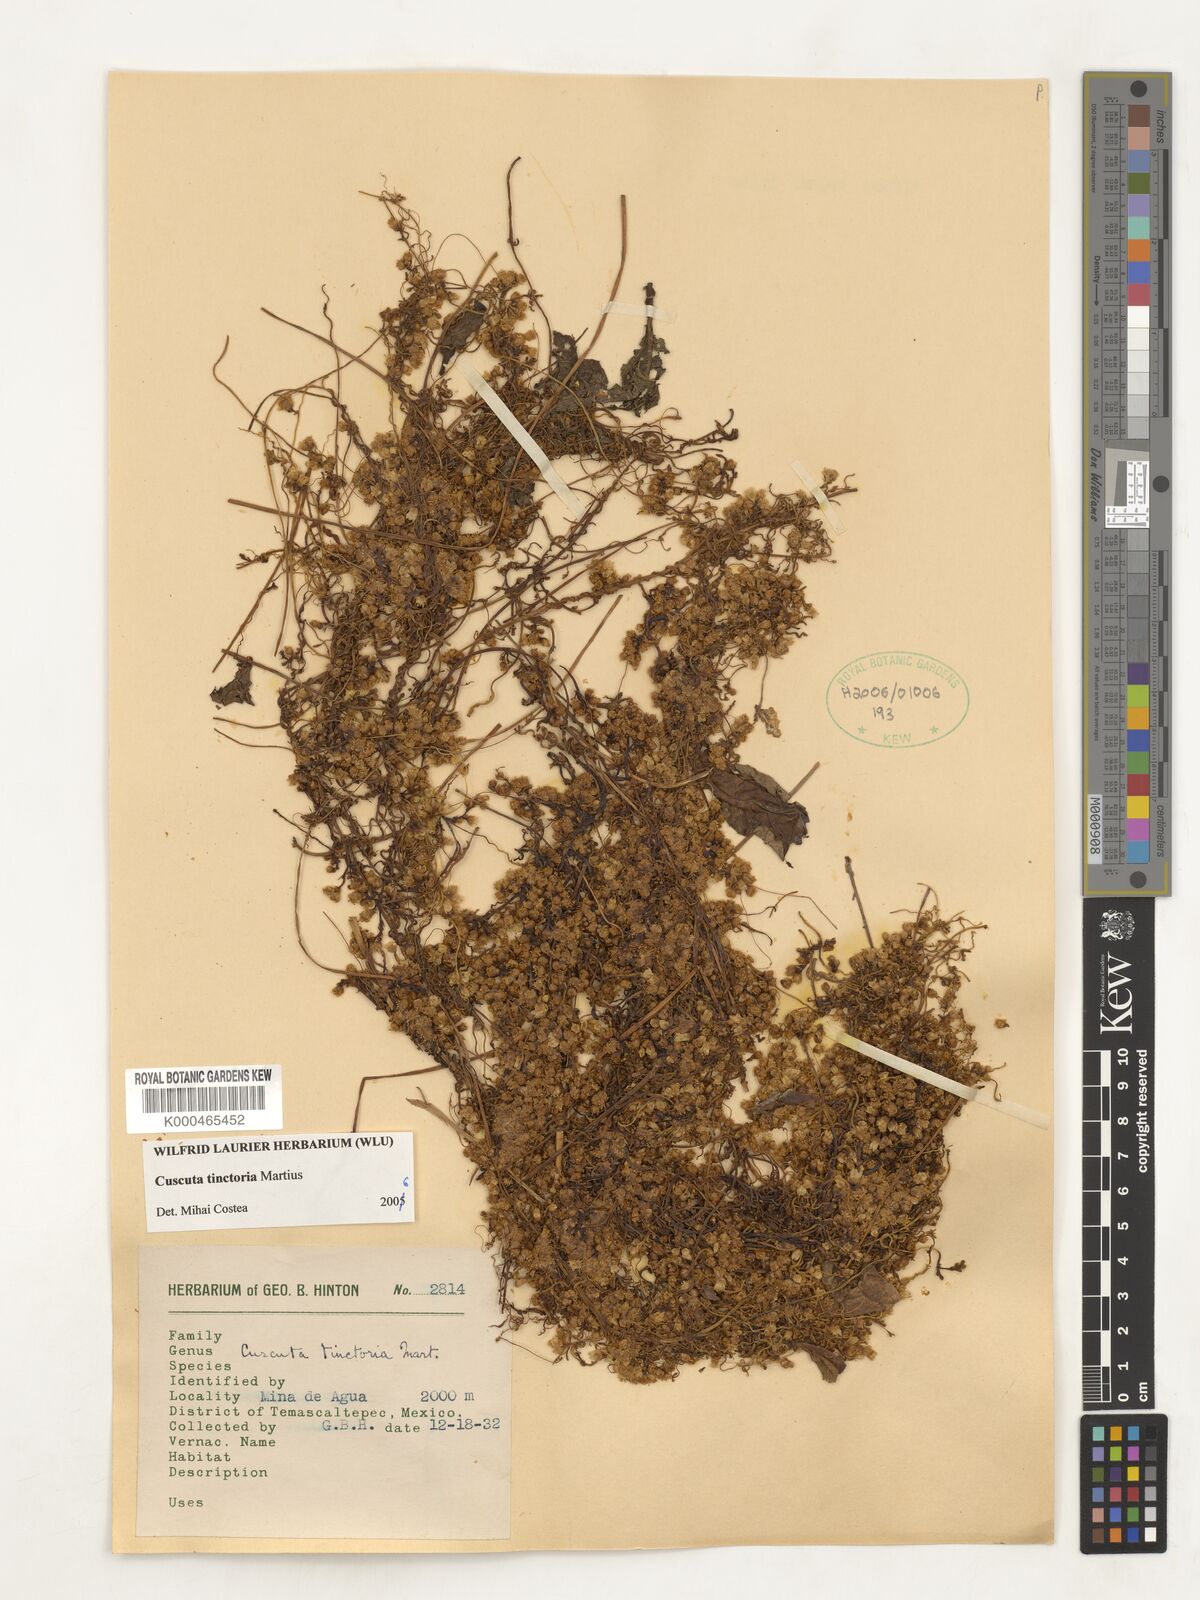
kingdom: Plantae
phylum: Tracheophyta
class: Magnoliopsida
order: Solanales
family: Convolvulaceae
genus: Cuscuta
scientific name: Cuscuta
